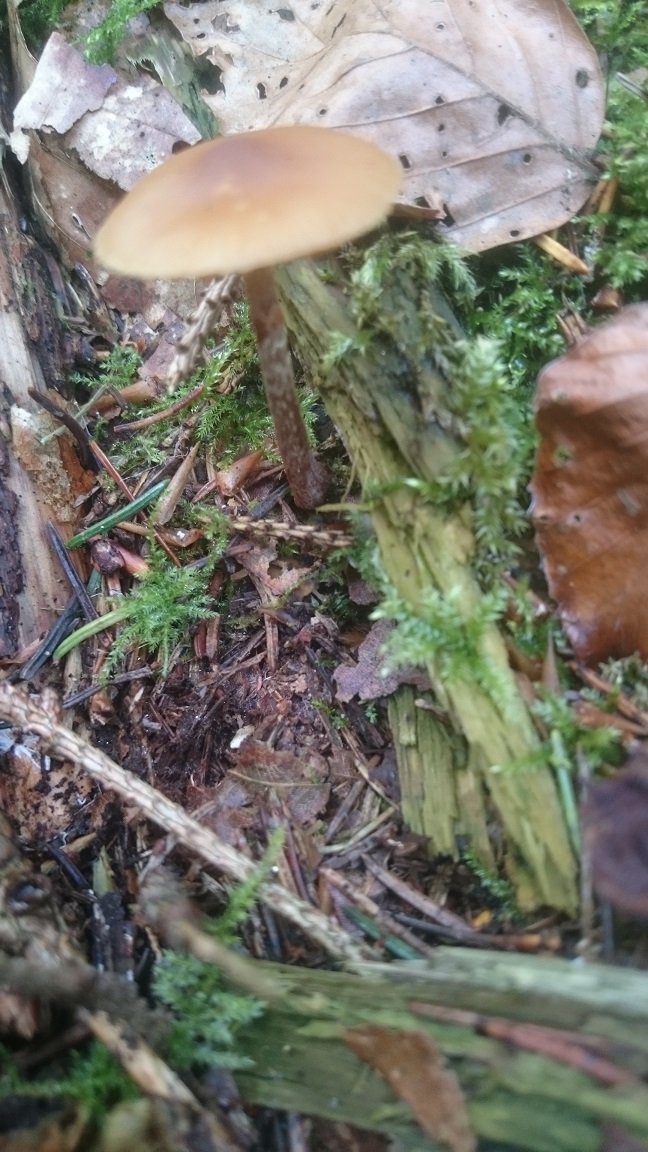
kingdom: Fungi
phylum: Basidiomycota
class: Agaricomycetes
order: Agaricales
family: Hymenogastraceae
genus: Galerina
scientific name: Galerina marginata
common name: randbæltet hjelmhat
